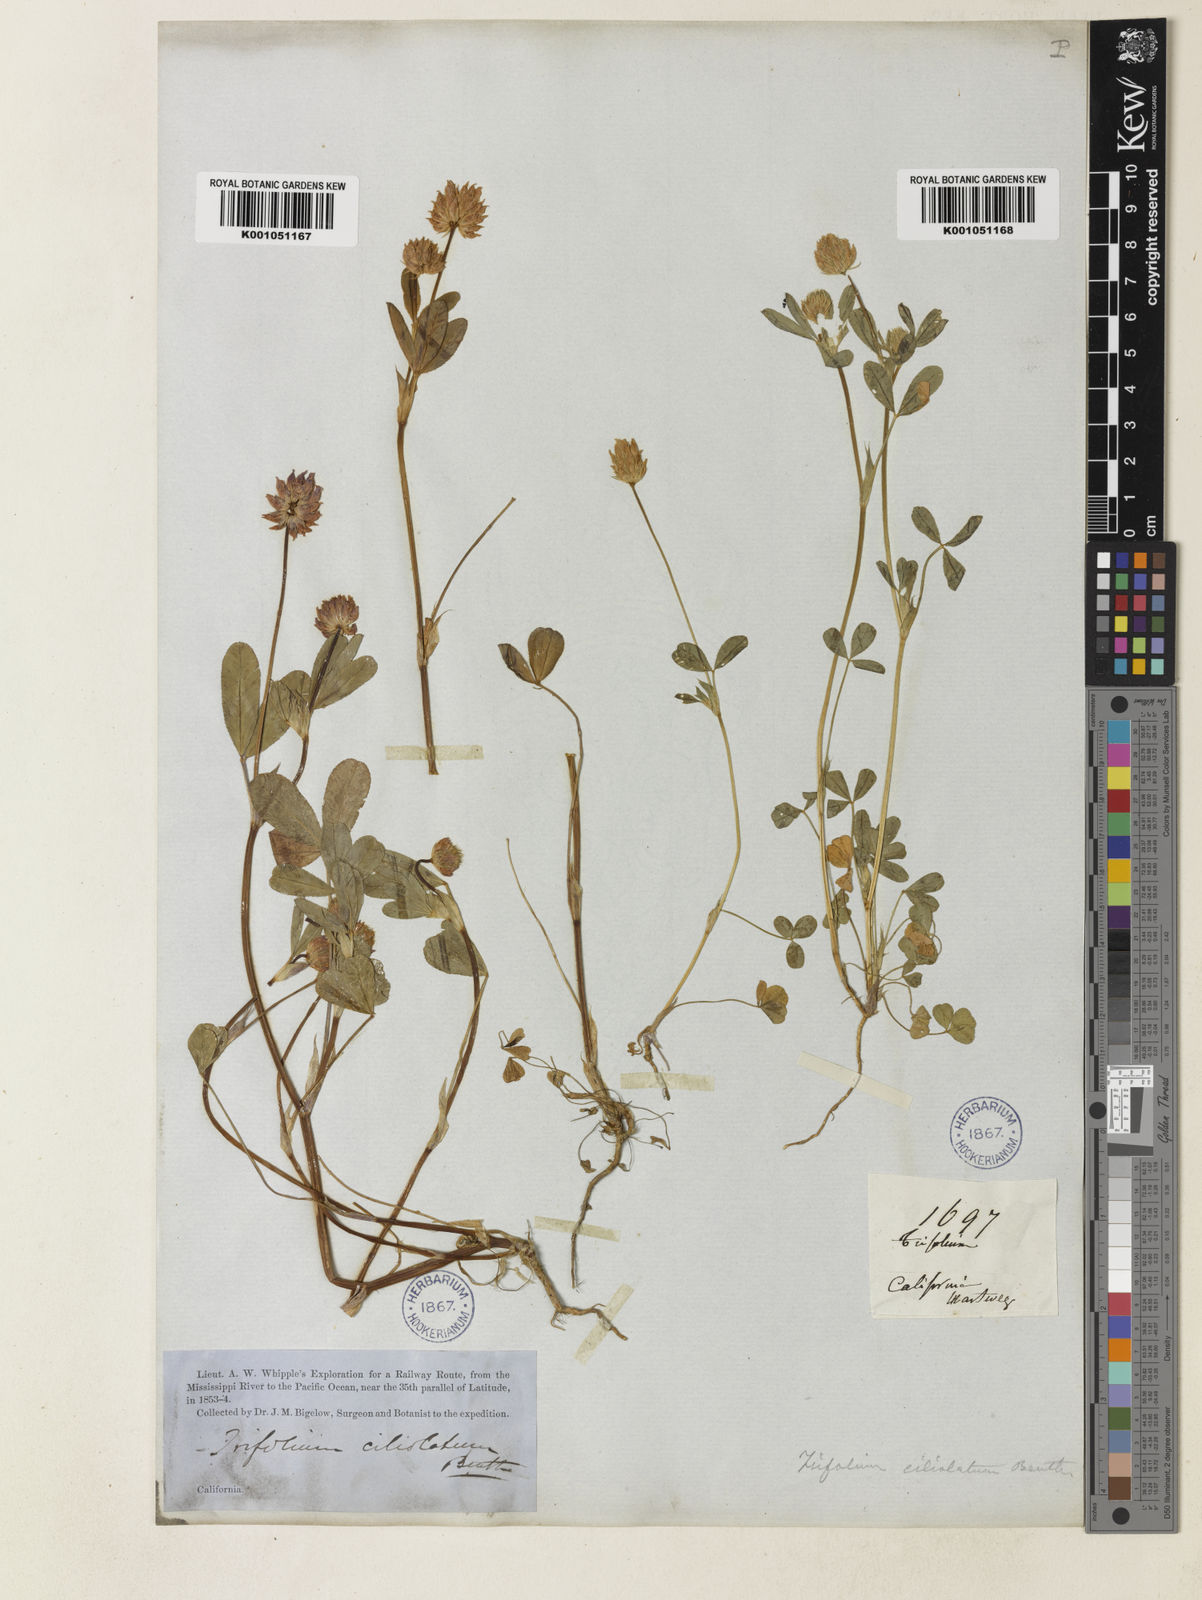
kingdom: Plantae
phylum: Tracheophyta
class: Magnoliopsida
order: Fabales
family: Fabaceae
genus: Trifolium
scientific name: Trifolium ciliolatum
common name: Foothill clover
